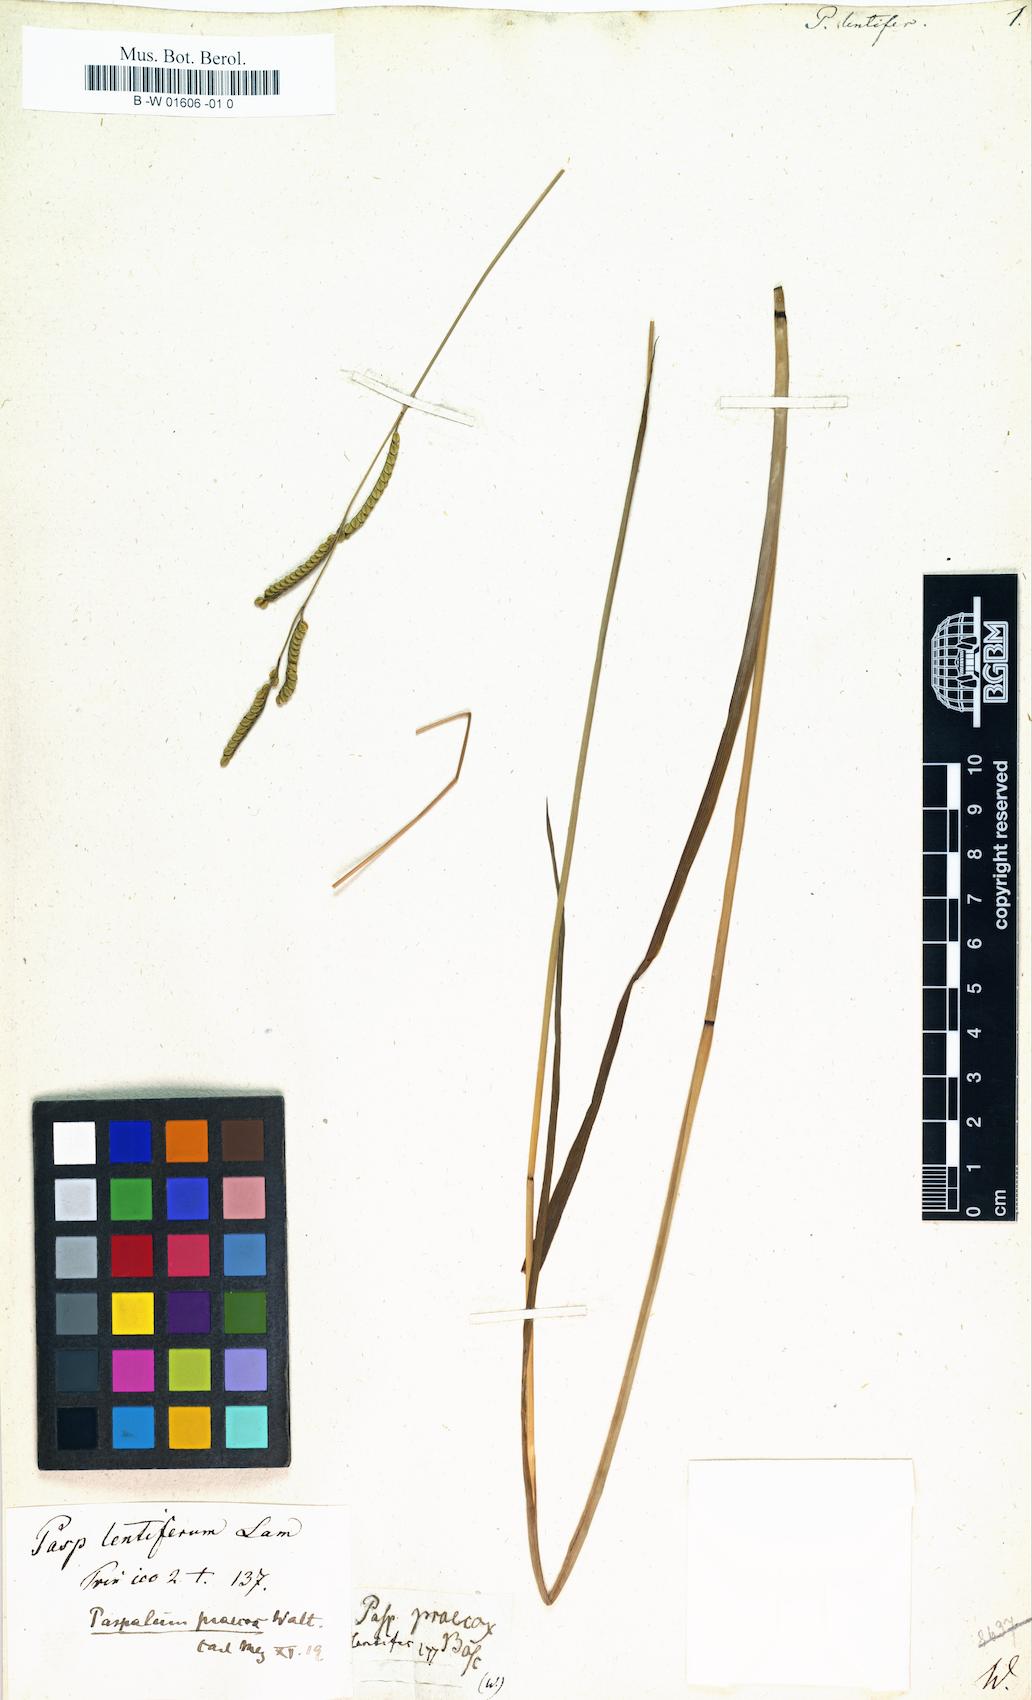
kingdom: Plantae
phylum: Tracheophyta
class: Liliopsida
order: Poales
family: Poaceae
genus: Paspalum
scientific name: Paspalum
